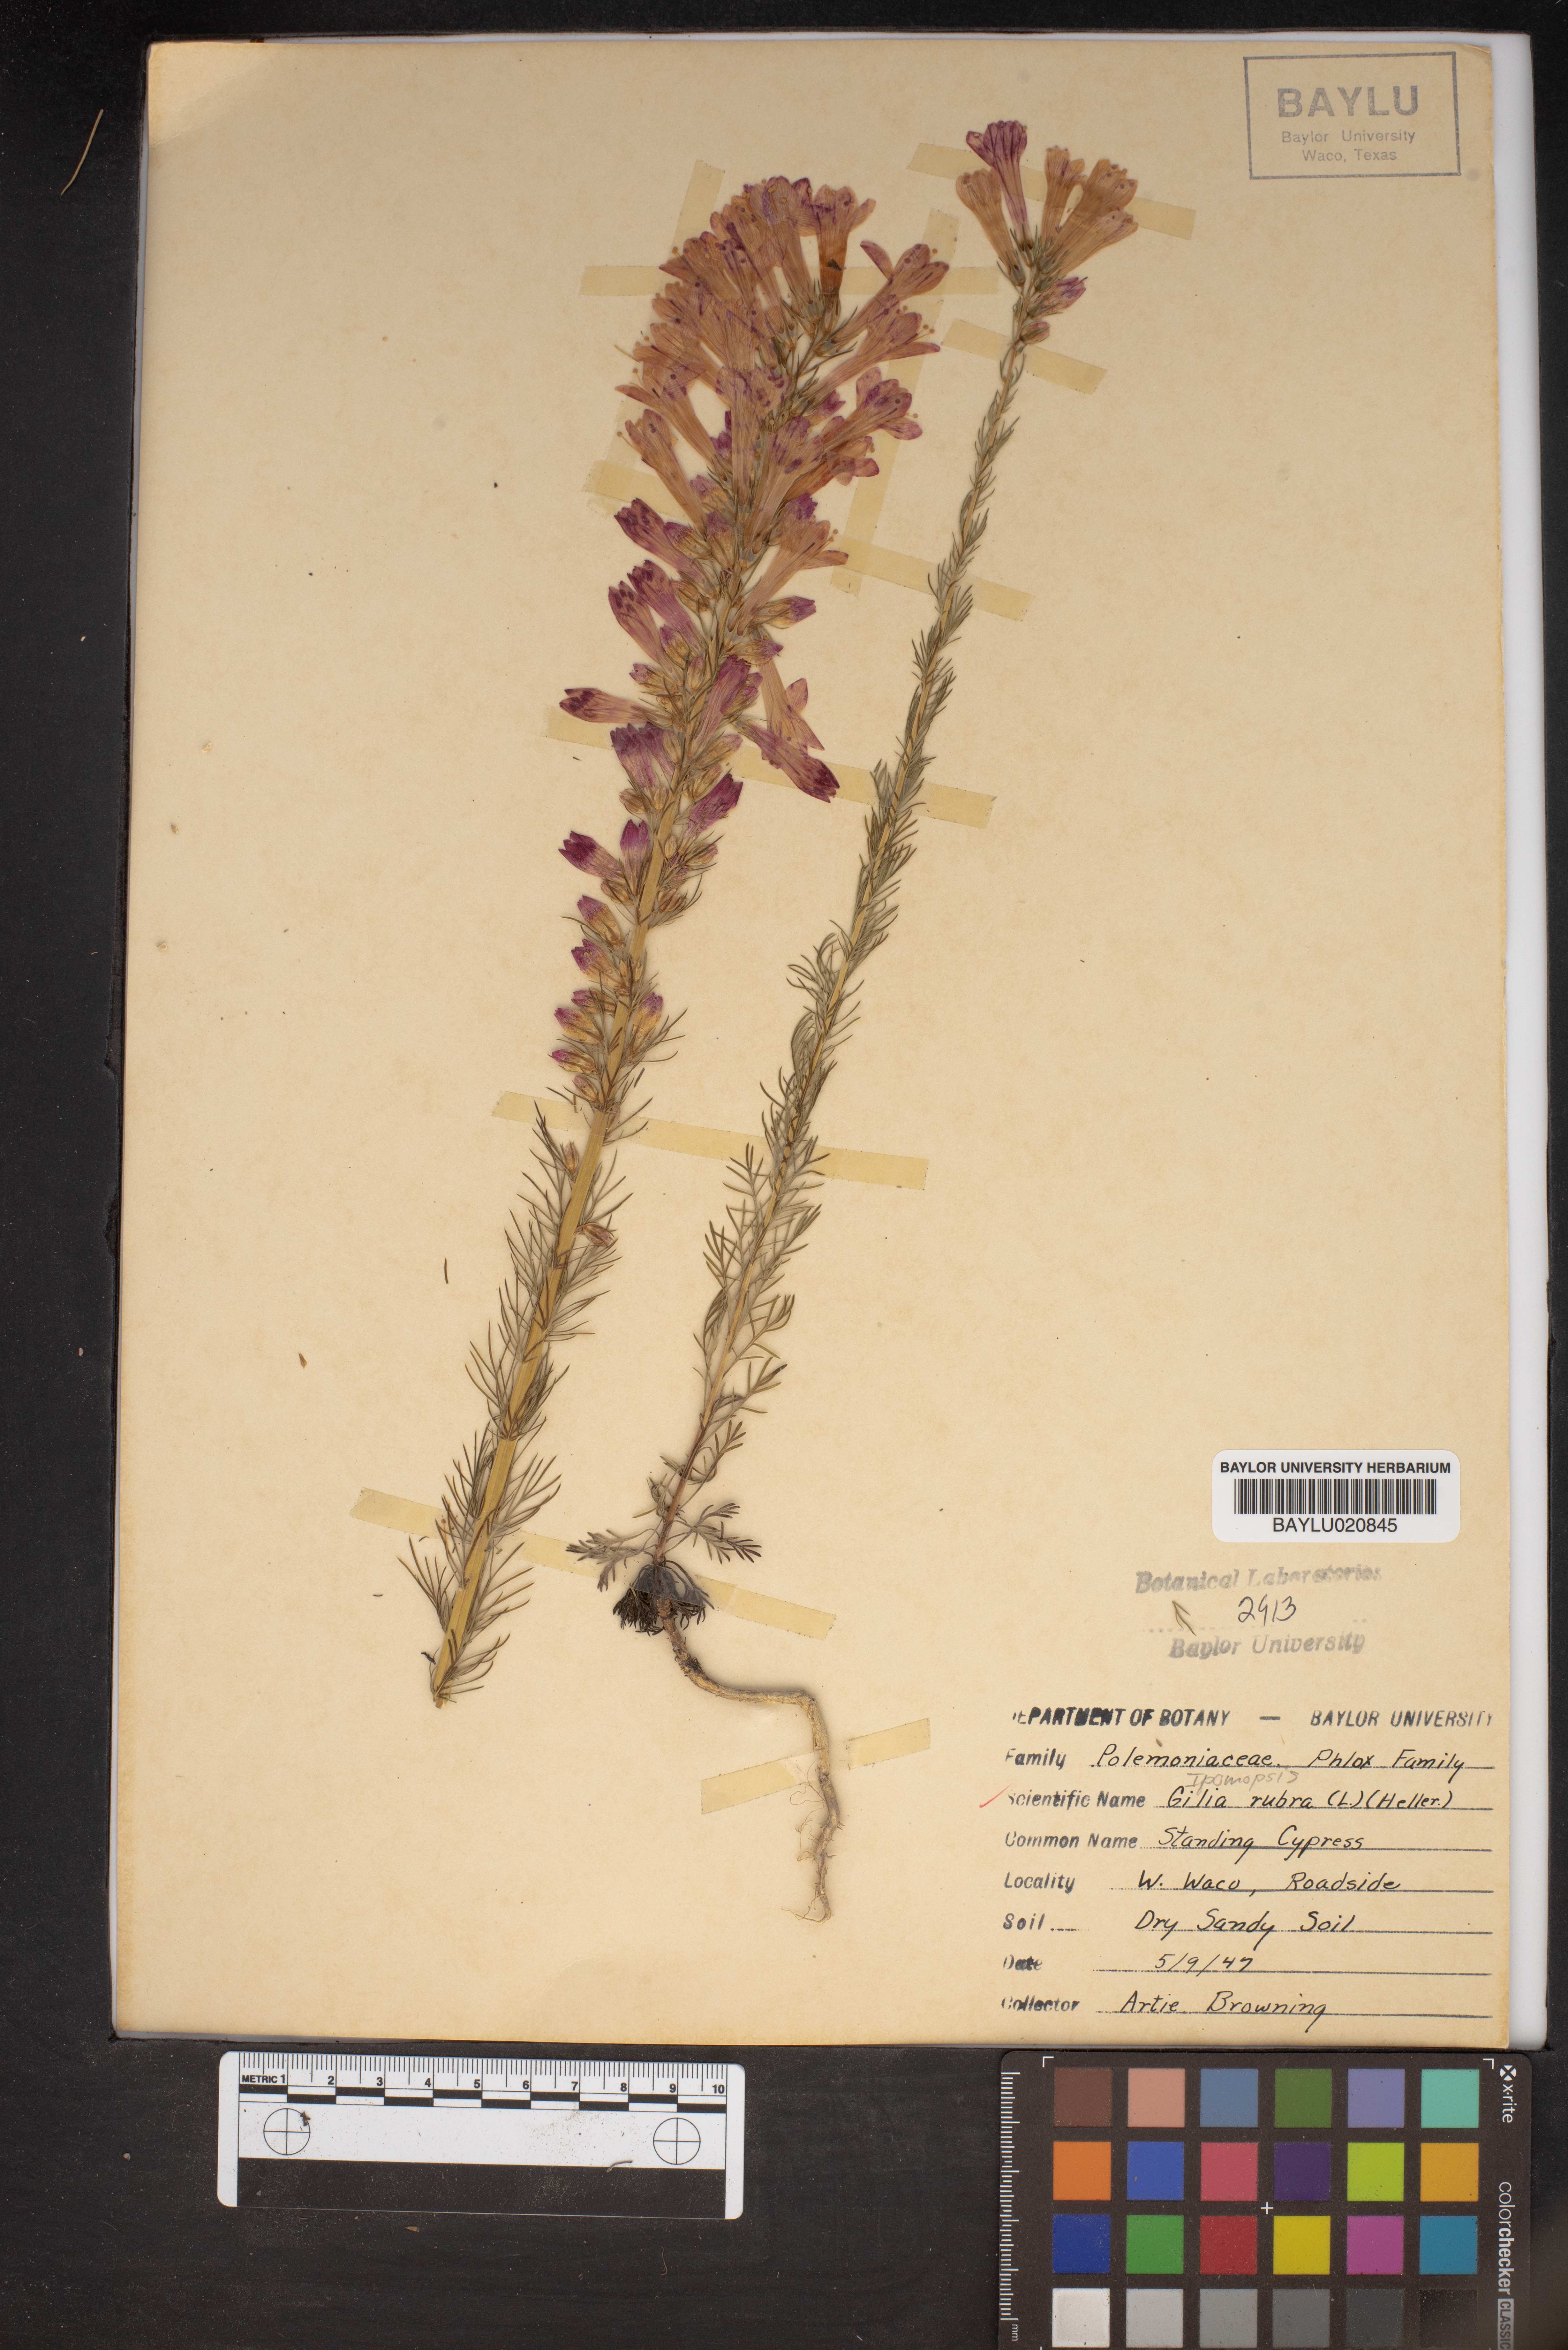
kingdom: Plantae
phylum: Tracheophyta
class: Magnoliopsida
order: Ericales
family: Polemoniaceae
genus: Ipomopsis
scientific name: Ipomopsis rubra
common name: Skyrocket
